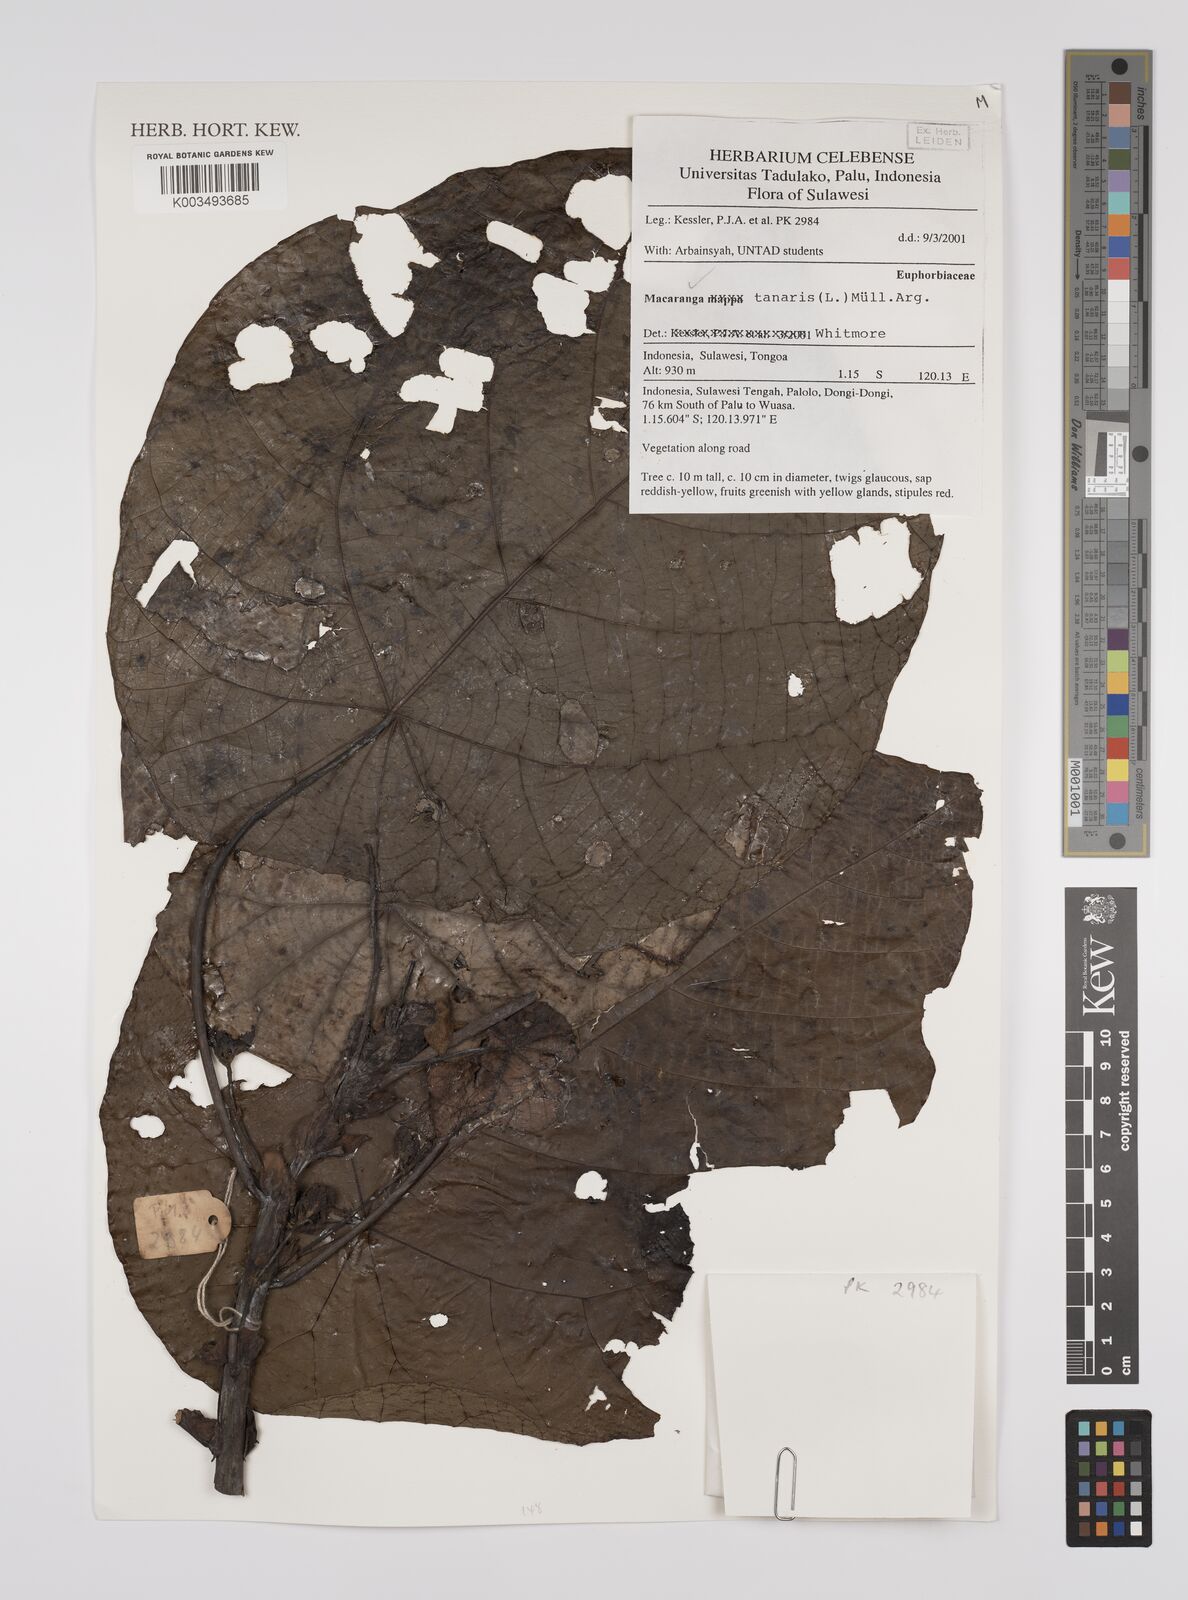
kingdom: Plantae
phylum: Tracheophyta
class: Magnoliopsida
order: Malpighiales
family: Euphorbiaceae
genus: Macaranga
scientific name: Macaranga tanarius
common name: Parasol leaf tree
